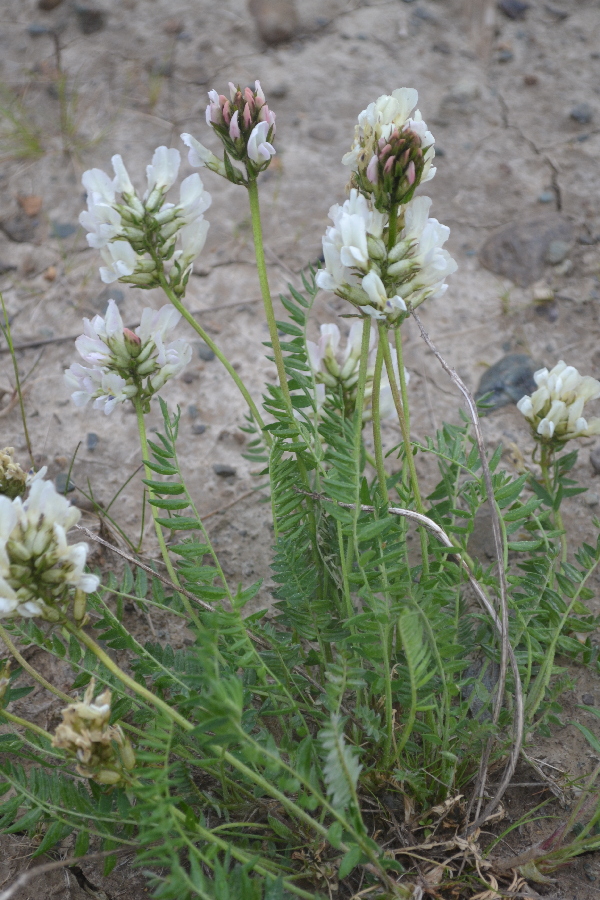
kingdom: Plantae
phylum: Tracheophyta
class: Magnoliopsida
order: Fabales
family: Fabaceae
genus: Oxytropis
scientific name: Oxytropis sordida
